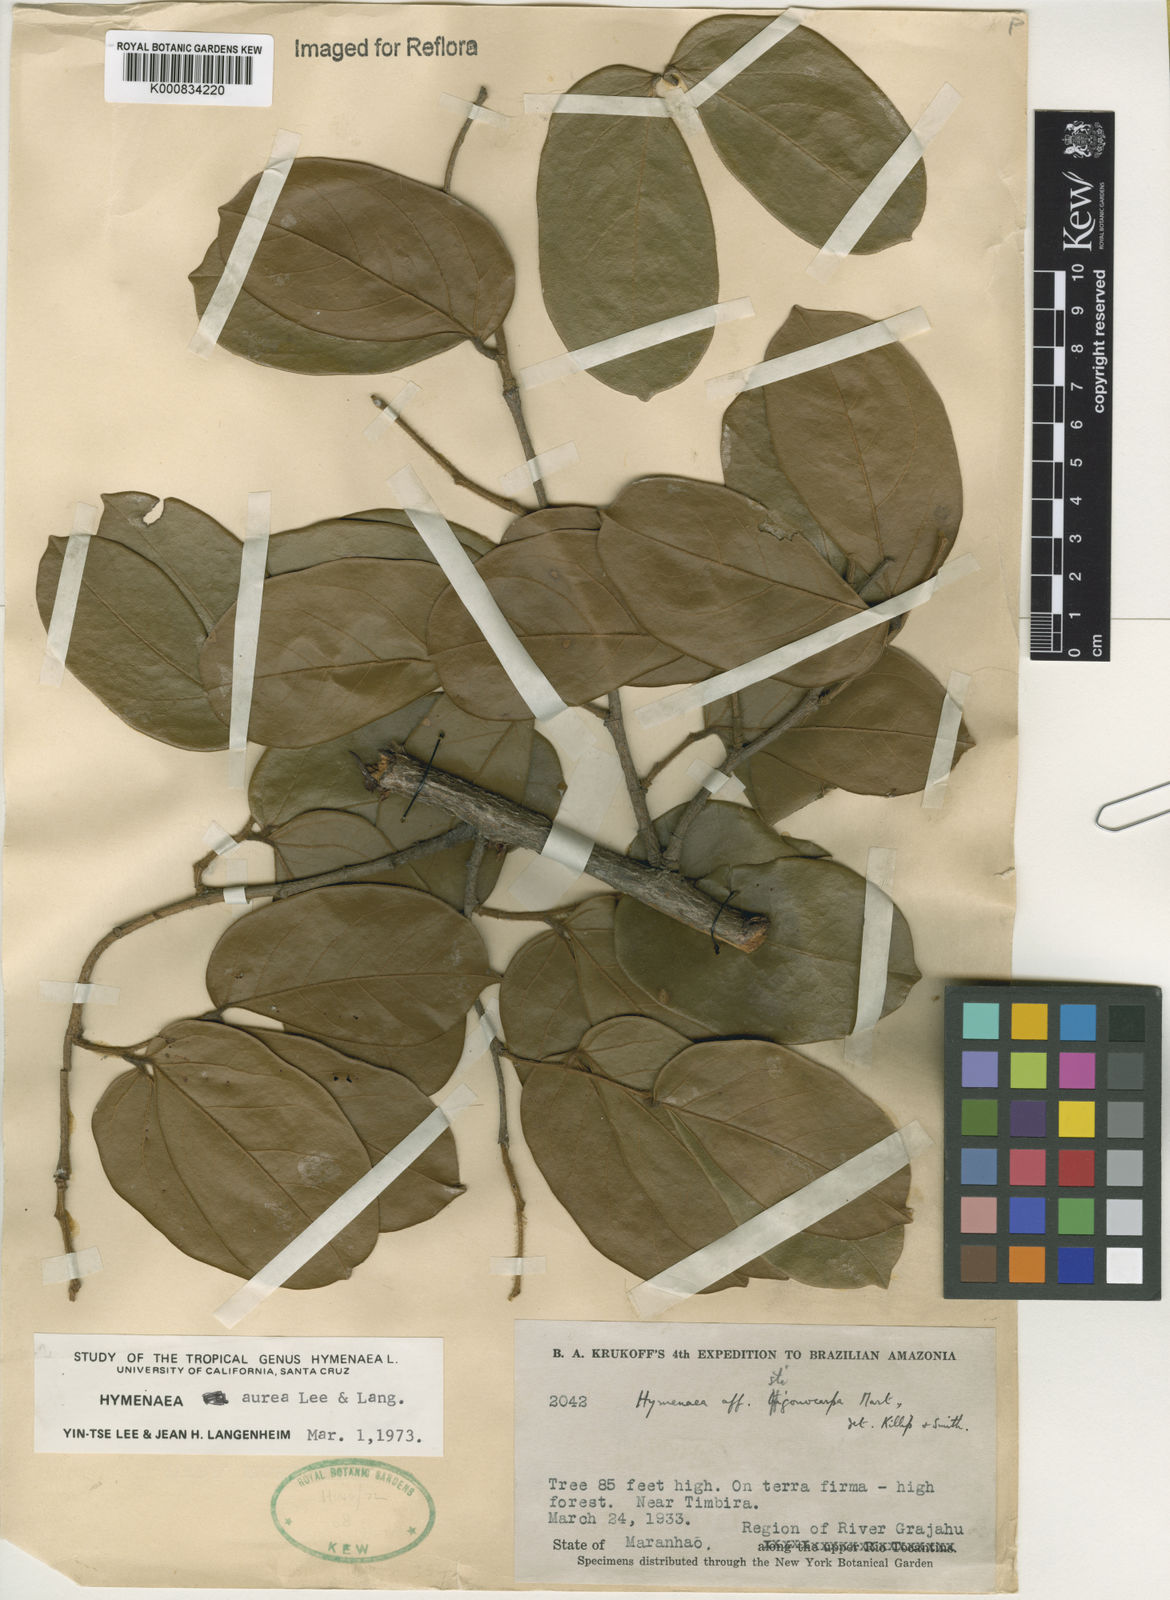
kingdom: Plantae
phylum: Tracheophyta
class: Magnoliopsida
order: Fabales
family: Fabaceae
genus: Hymenaea
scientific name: Hymenaea
